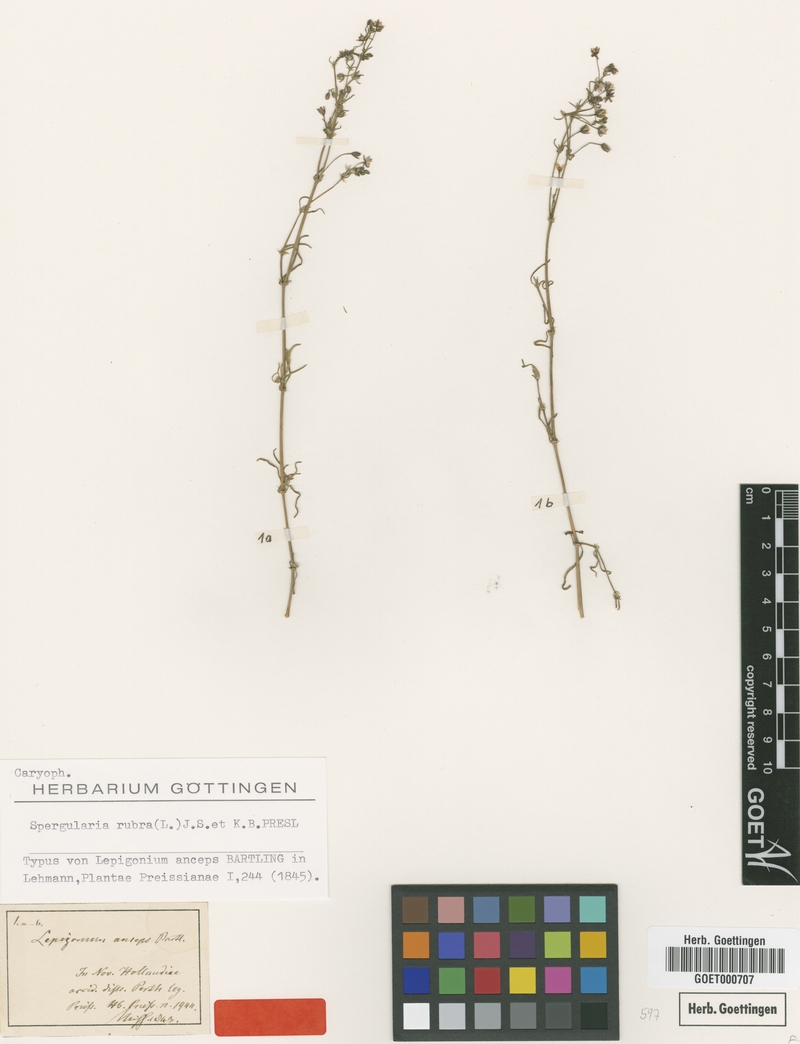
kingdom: Plantae
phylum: Tracheophyta
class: Magnoliopsida
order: Caryophyllales
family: Caryophyllaceae
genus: Spergularia
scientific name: Spergularia rubra
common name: Red sand-spurrey
